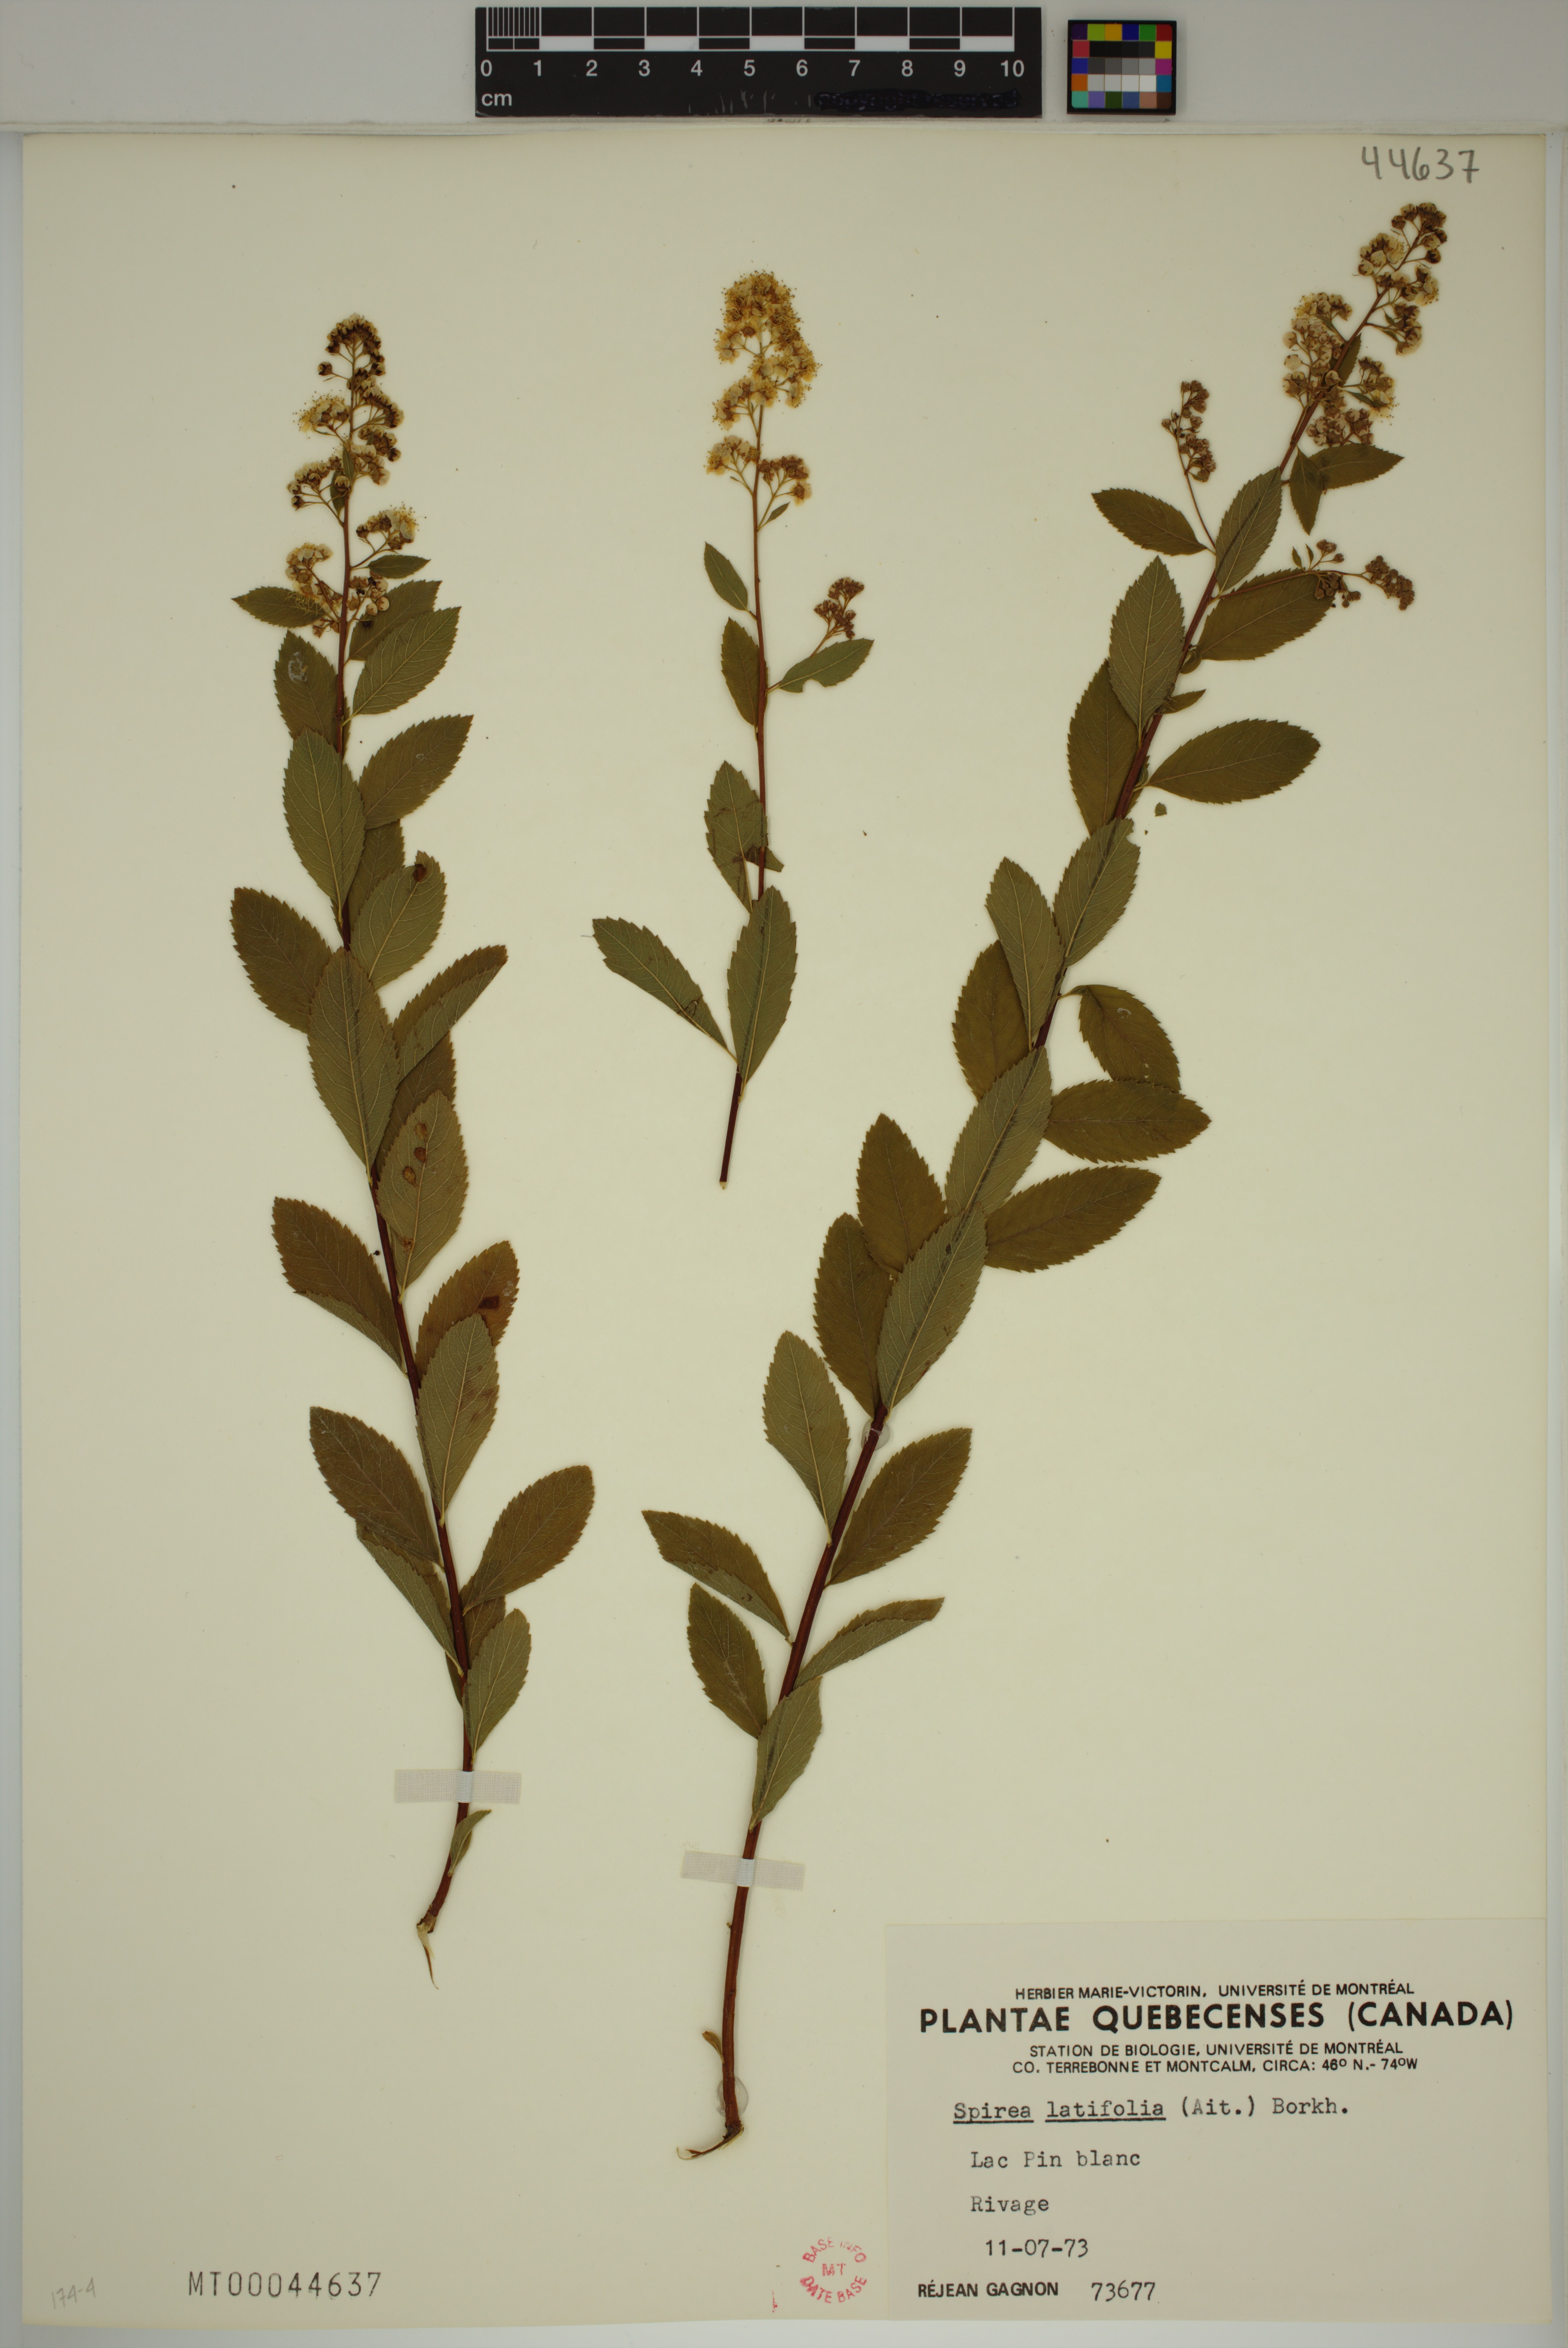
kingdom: Plantae
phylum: Tracheophyta
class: Magnoliopsida
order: Rosales
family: Rosaceae
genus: Spiraea
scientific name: Spiraea alba
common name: Pale bridewort
